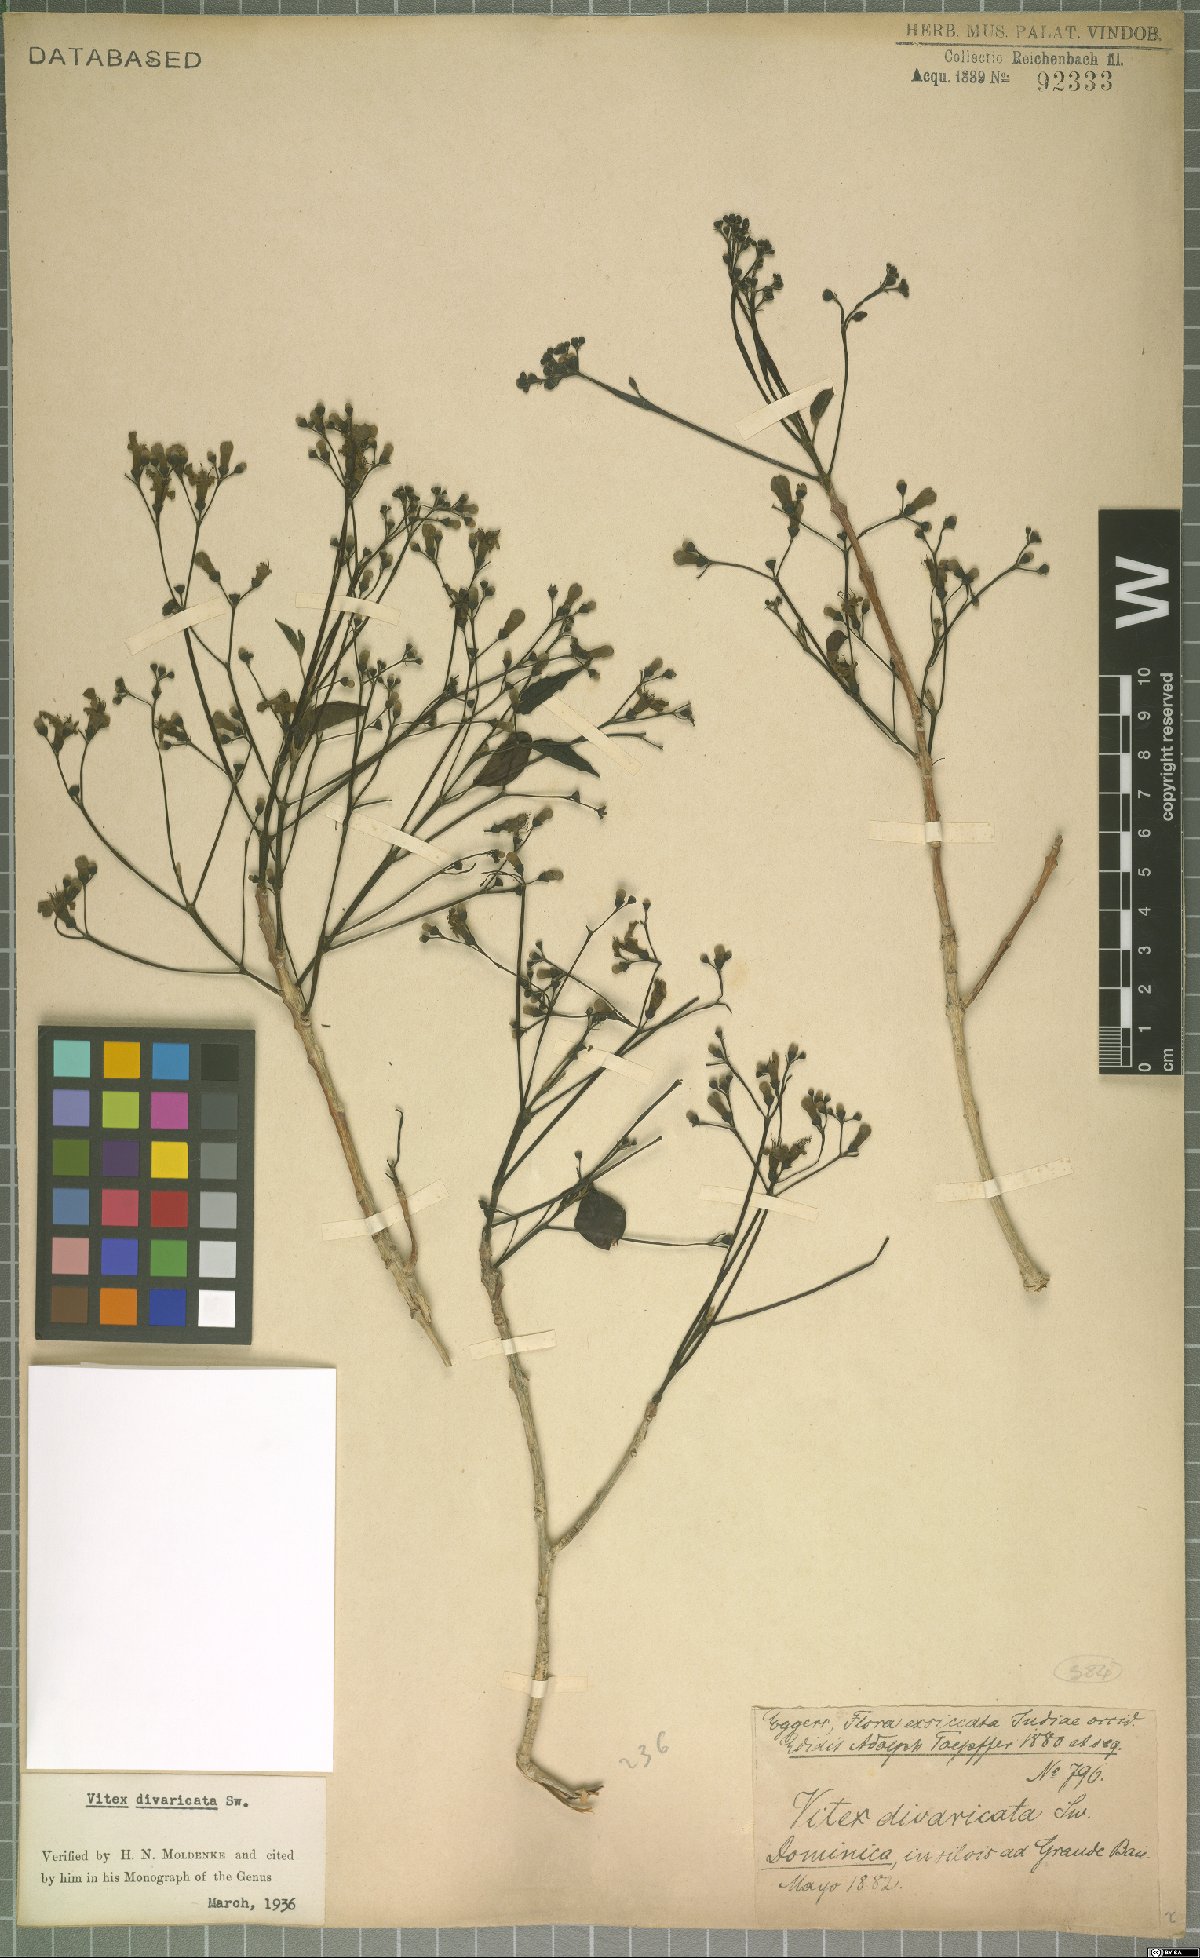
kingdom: Plantae
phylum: Tracheophyta
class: Magnoliopsida
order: Lamiales
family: Lamiaceae
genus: Vitex
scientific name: Vitex divaricata
